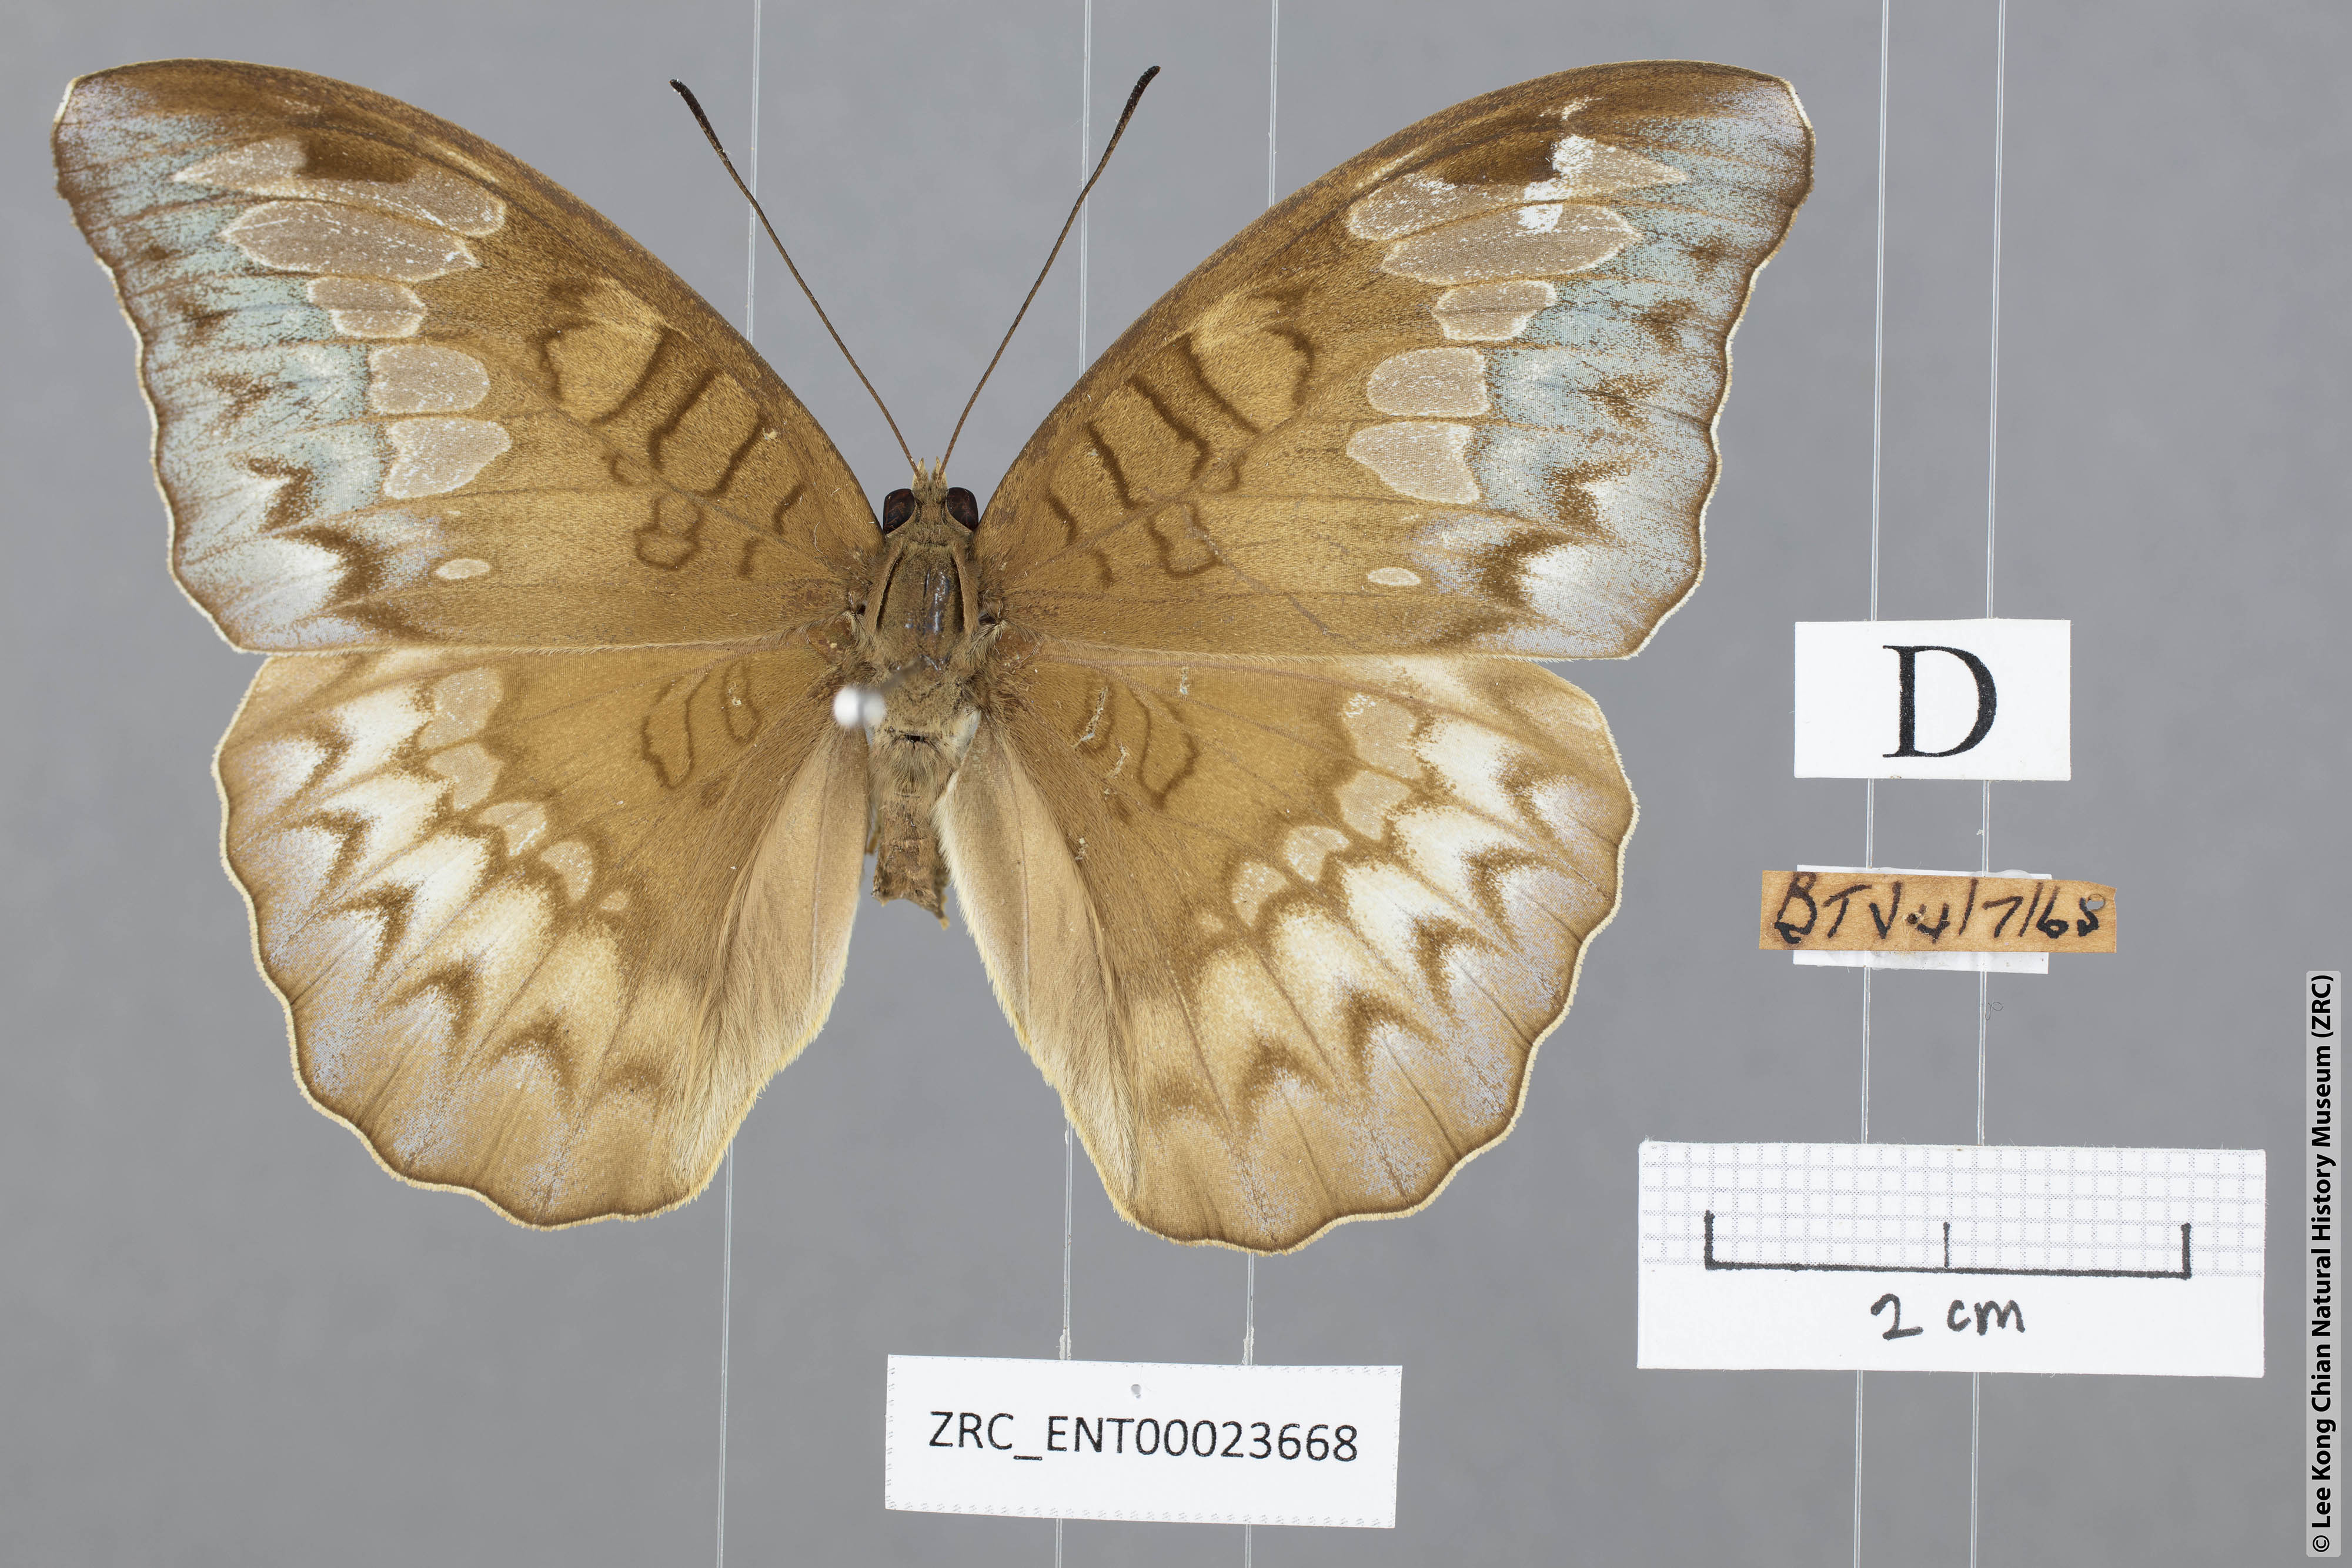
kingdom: Animalia
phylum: Arthropoda
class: Insecta
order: Lepidoptera
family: Nymphalidae
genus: Tanaecia
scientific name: Tanaecia godartii
